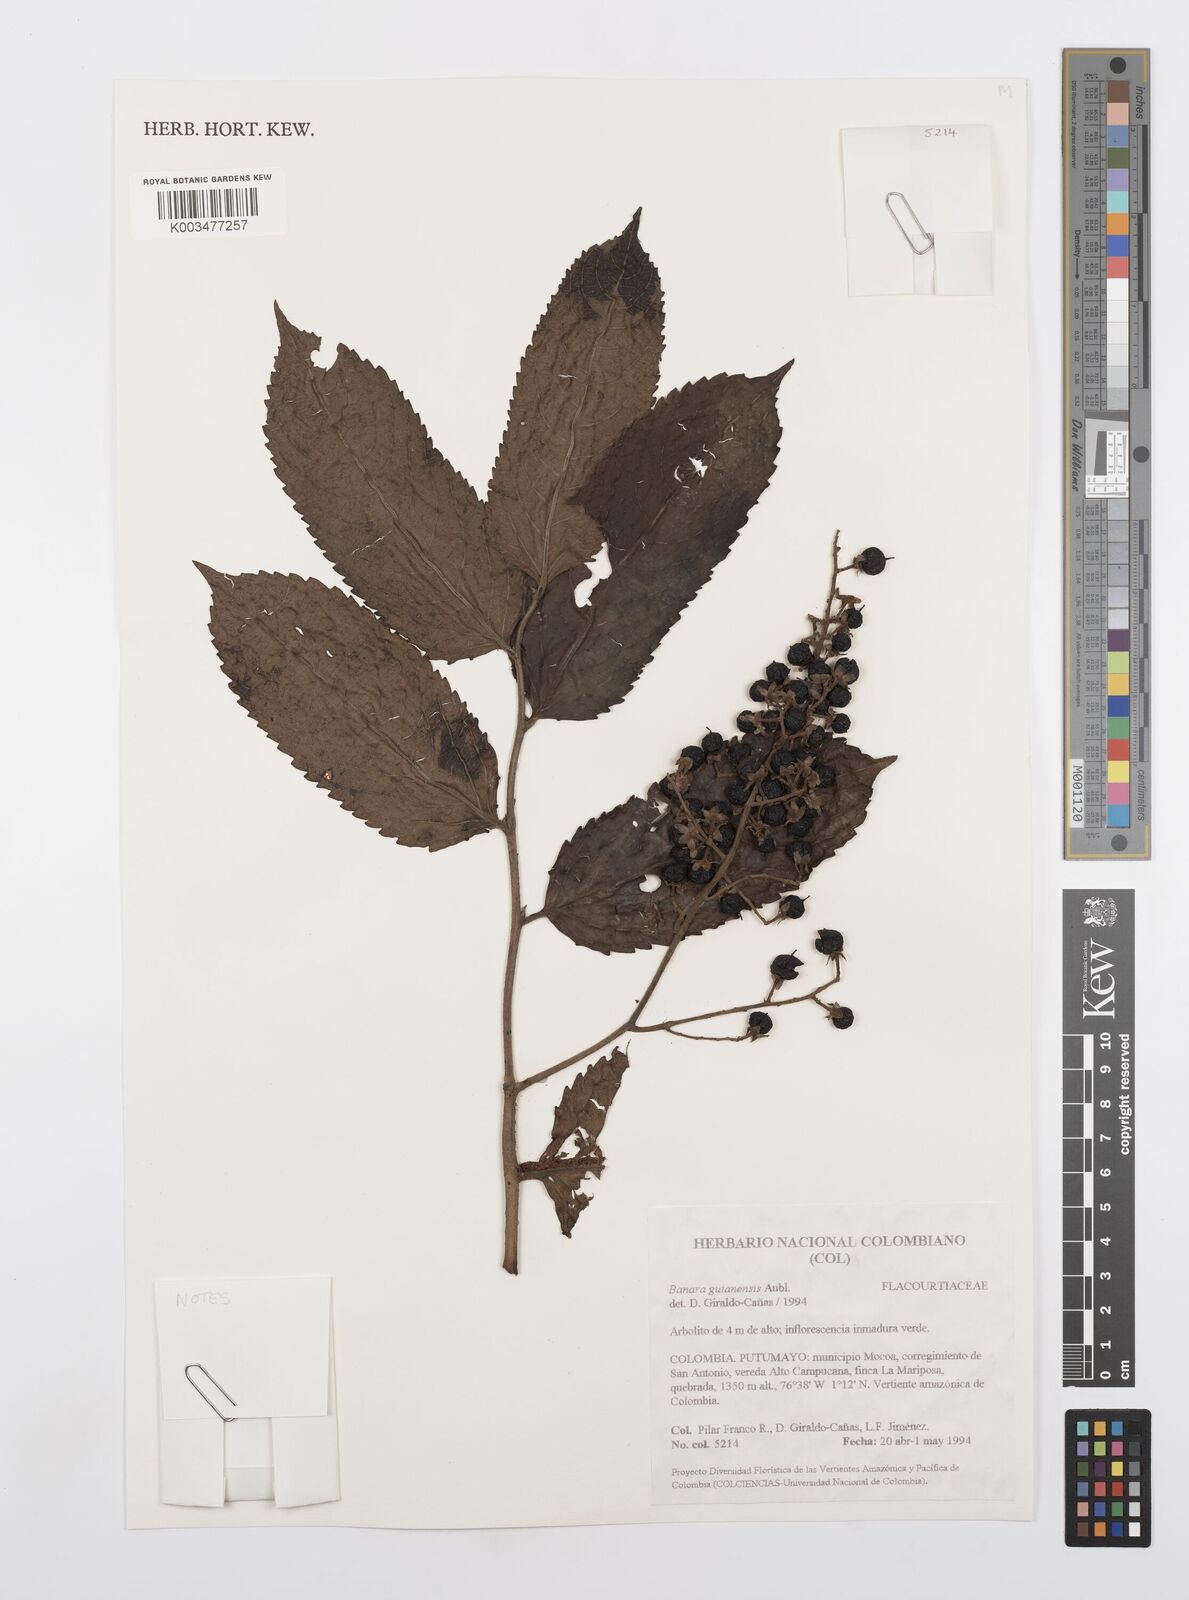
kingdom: Plantae
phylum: Tracheophyta
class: Magnoliopsida
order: Malpighiales
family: Salicaceae
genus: Banara
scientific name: Banara guianensis
